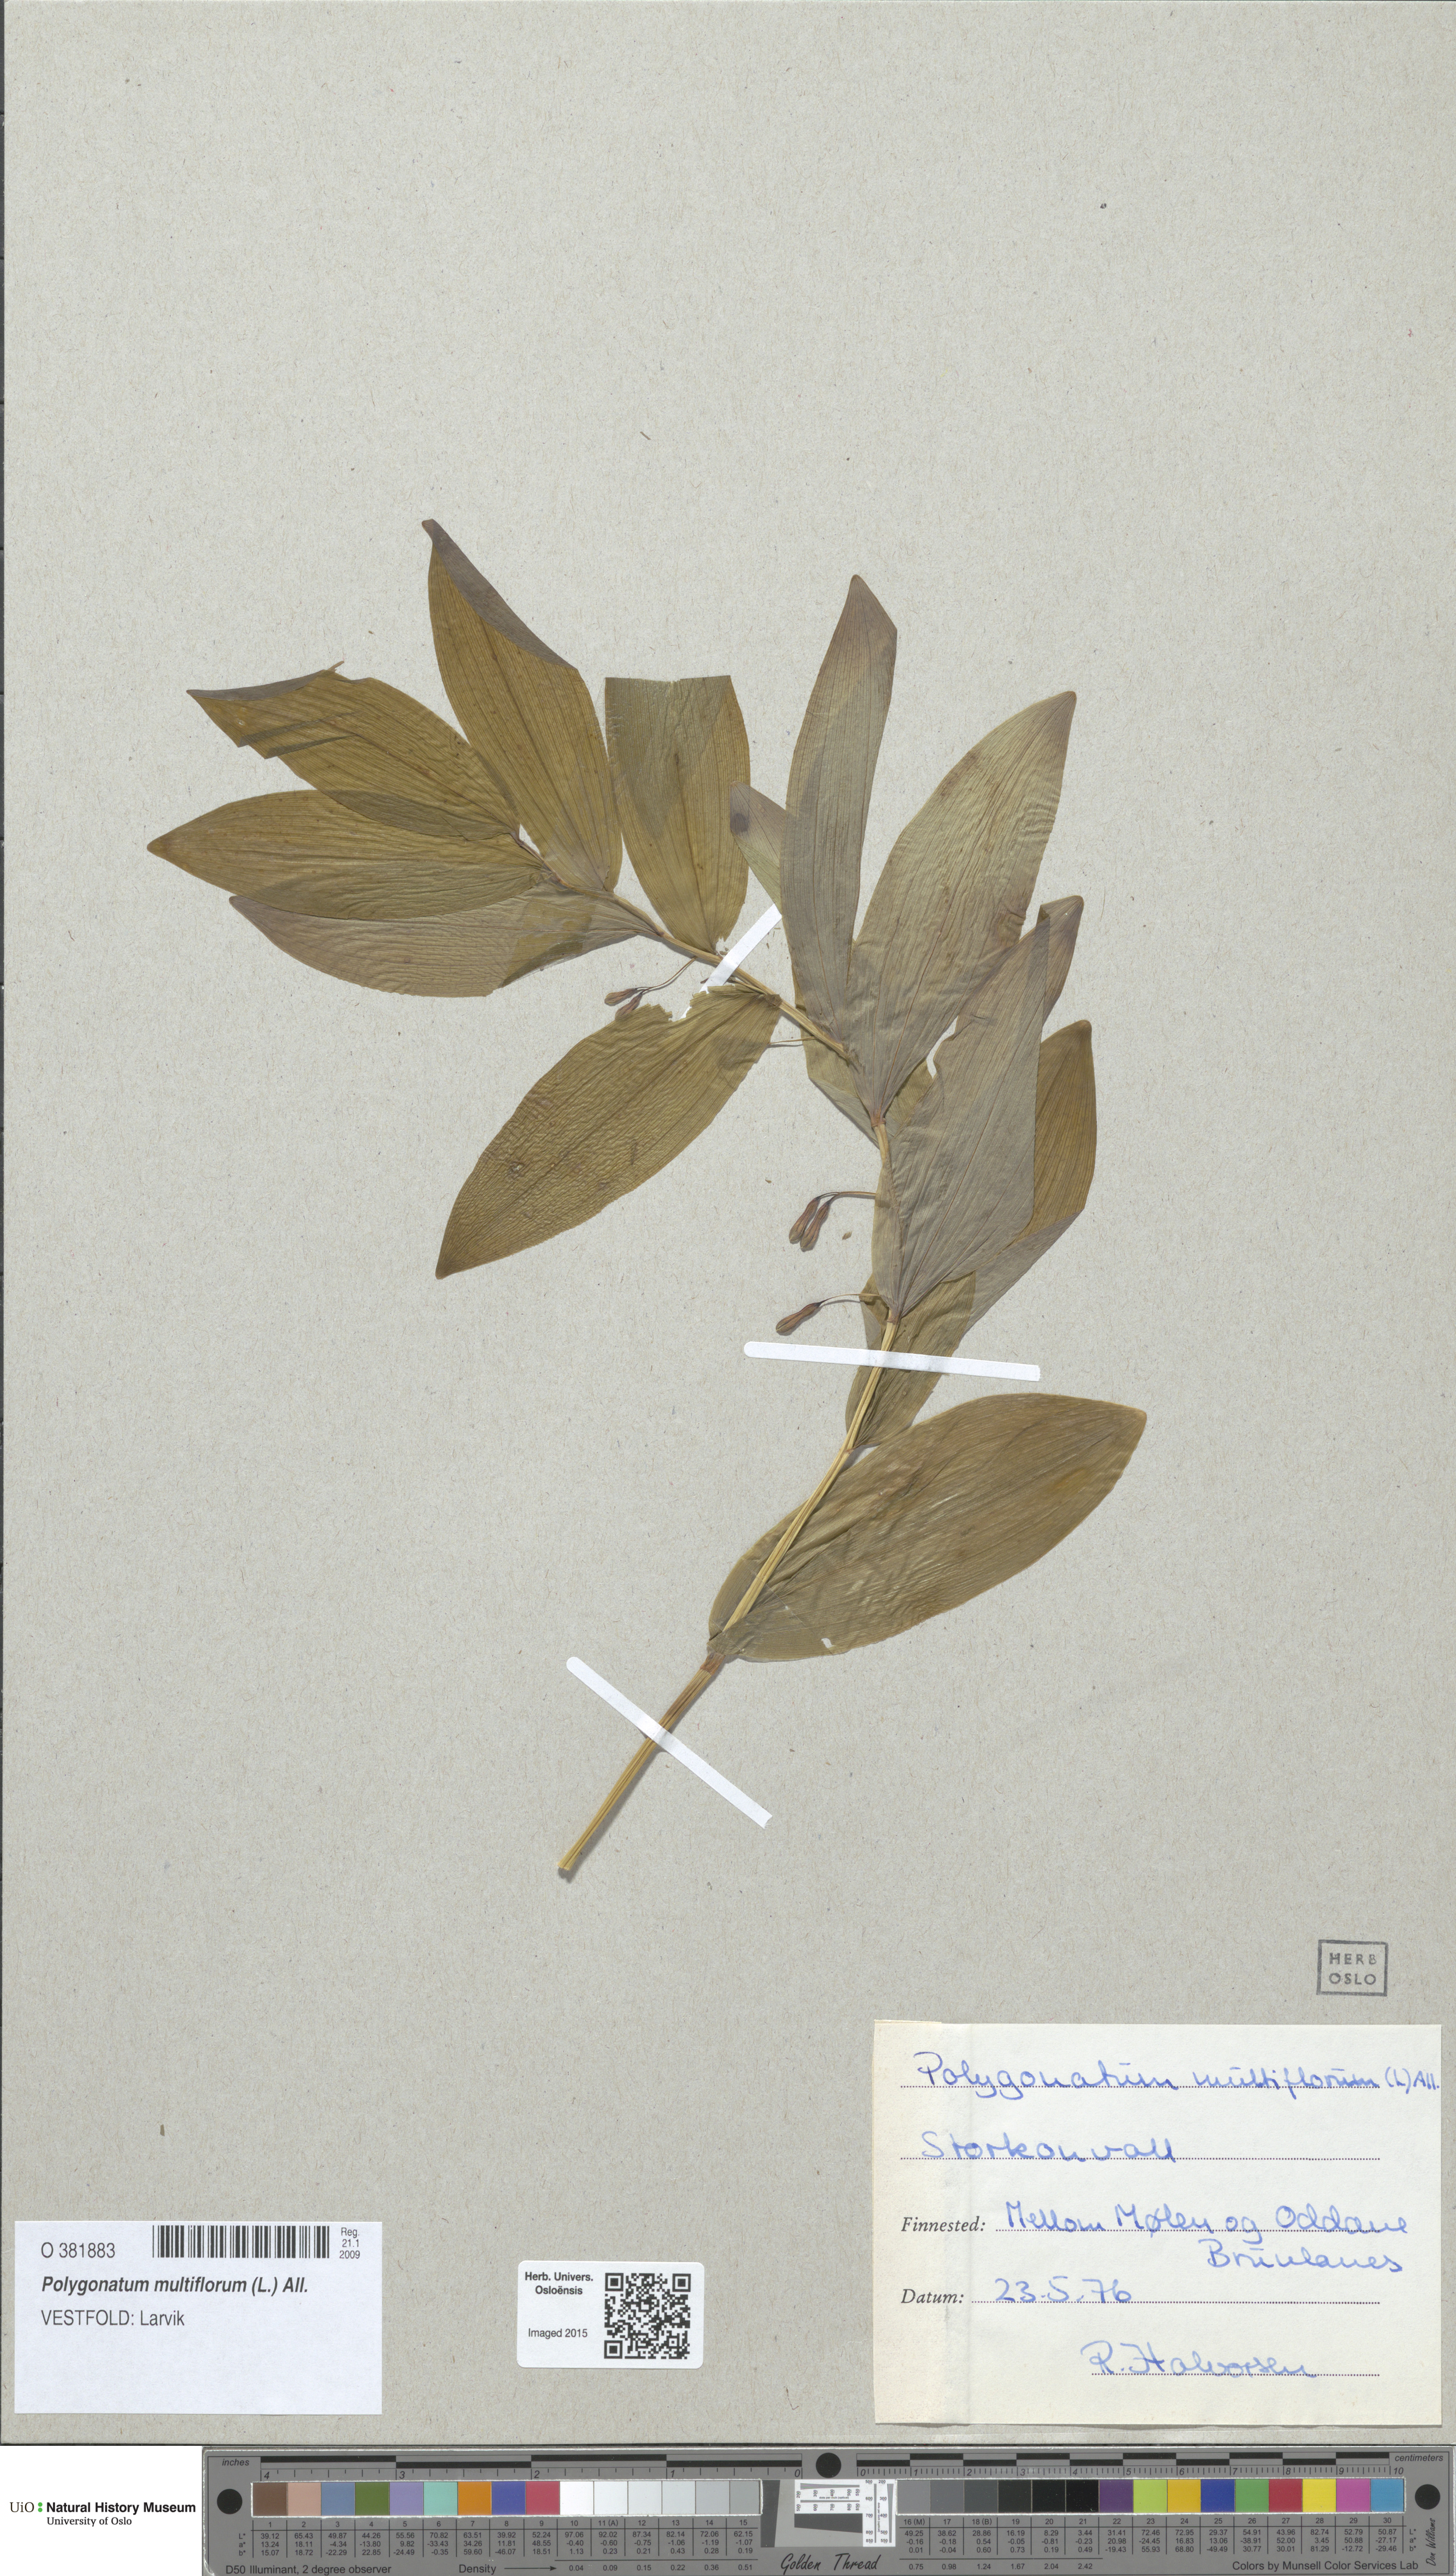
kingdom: Plantae
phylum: Tracheophyta
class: Liliopsida
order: Asparagales
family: Asparagaceae
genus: Polygonatum
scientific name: Polygonatum multiflorum
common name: Solomon's-seal
